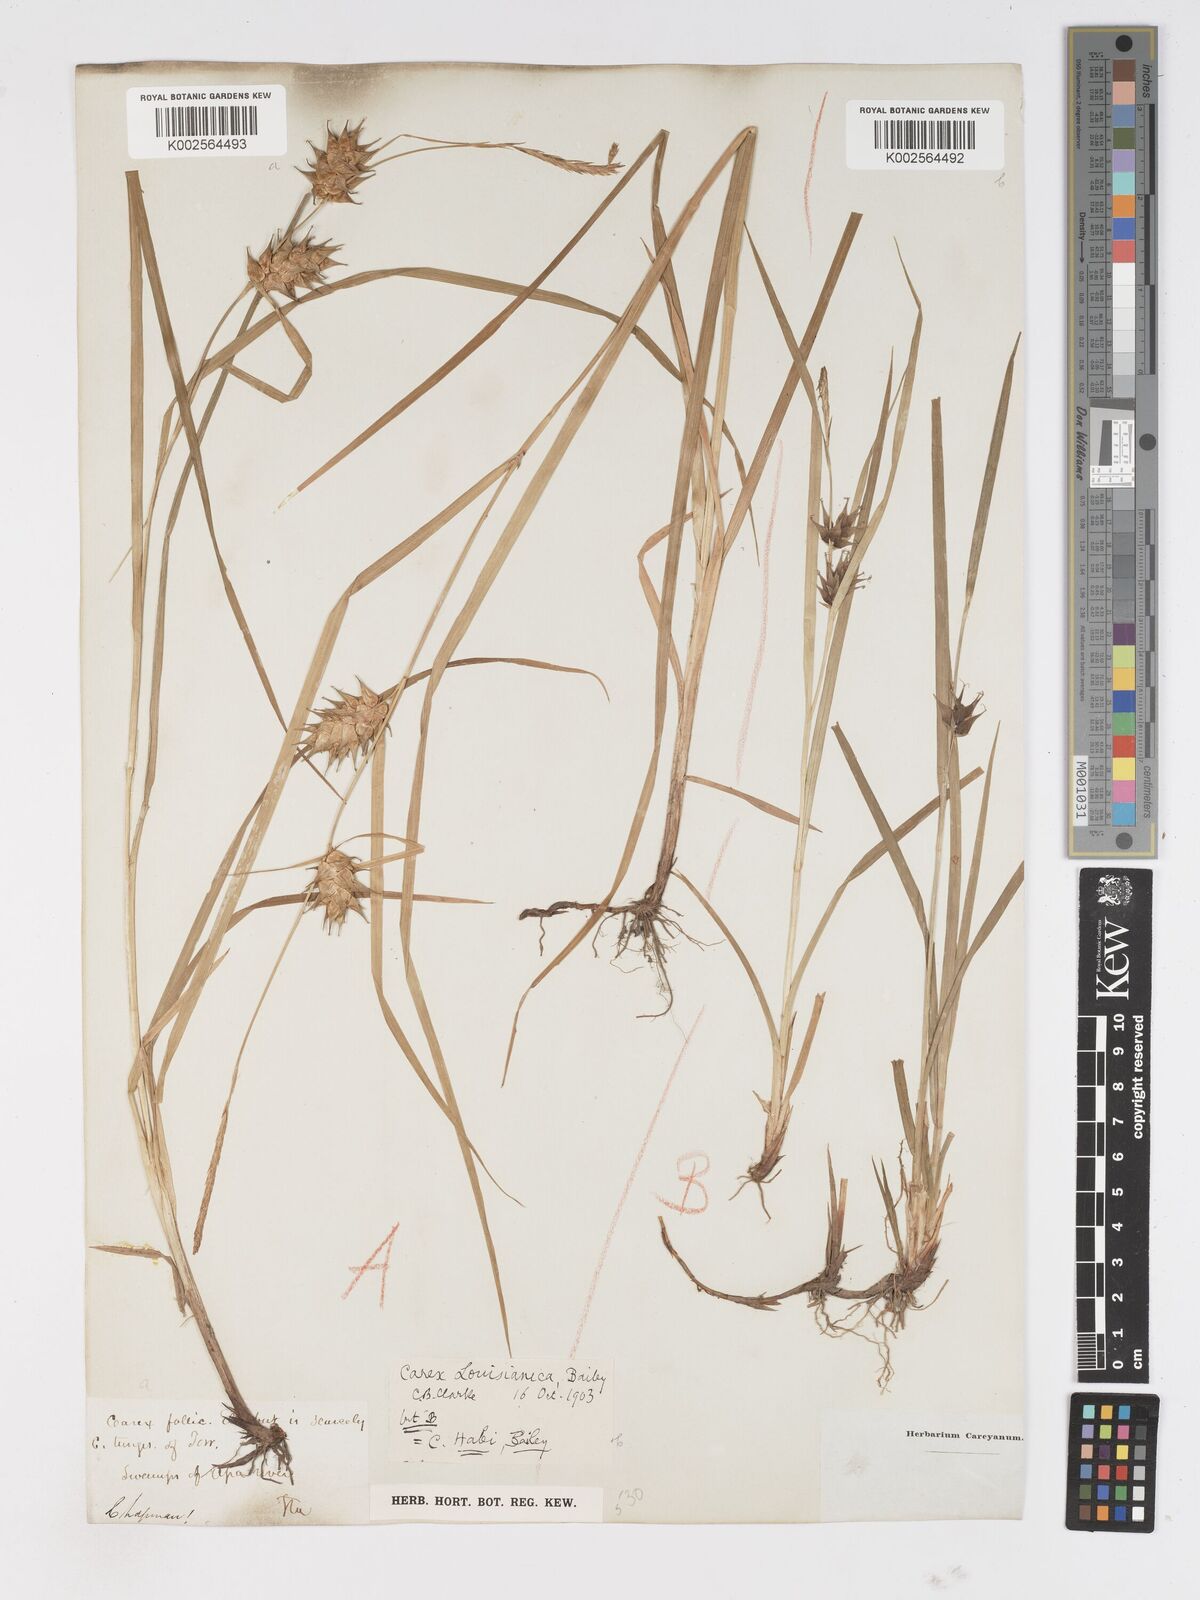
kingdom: Plantae
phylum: Tracheophyta
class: Liliopsida
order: Poales
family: Cyperaceae
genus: Carex
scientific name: Carex louisianica
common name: Louisiana sedge
